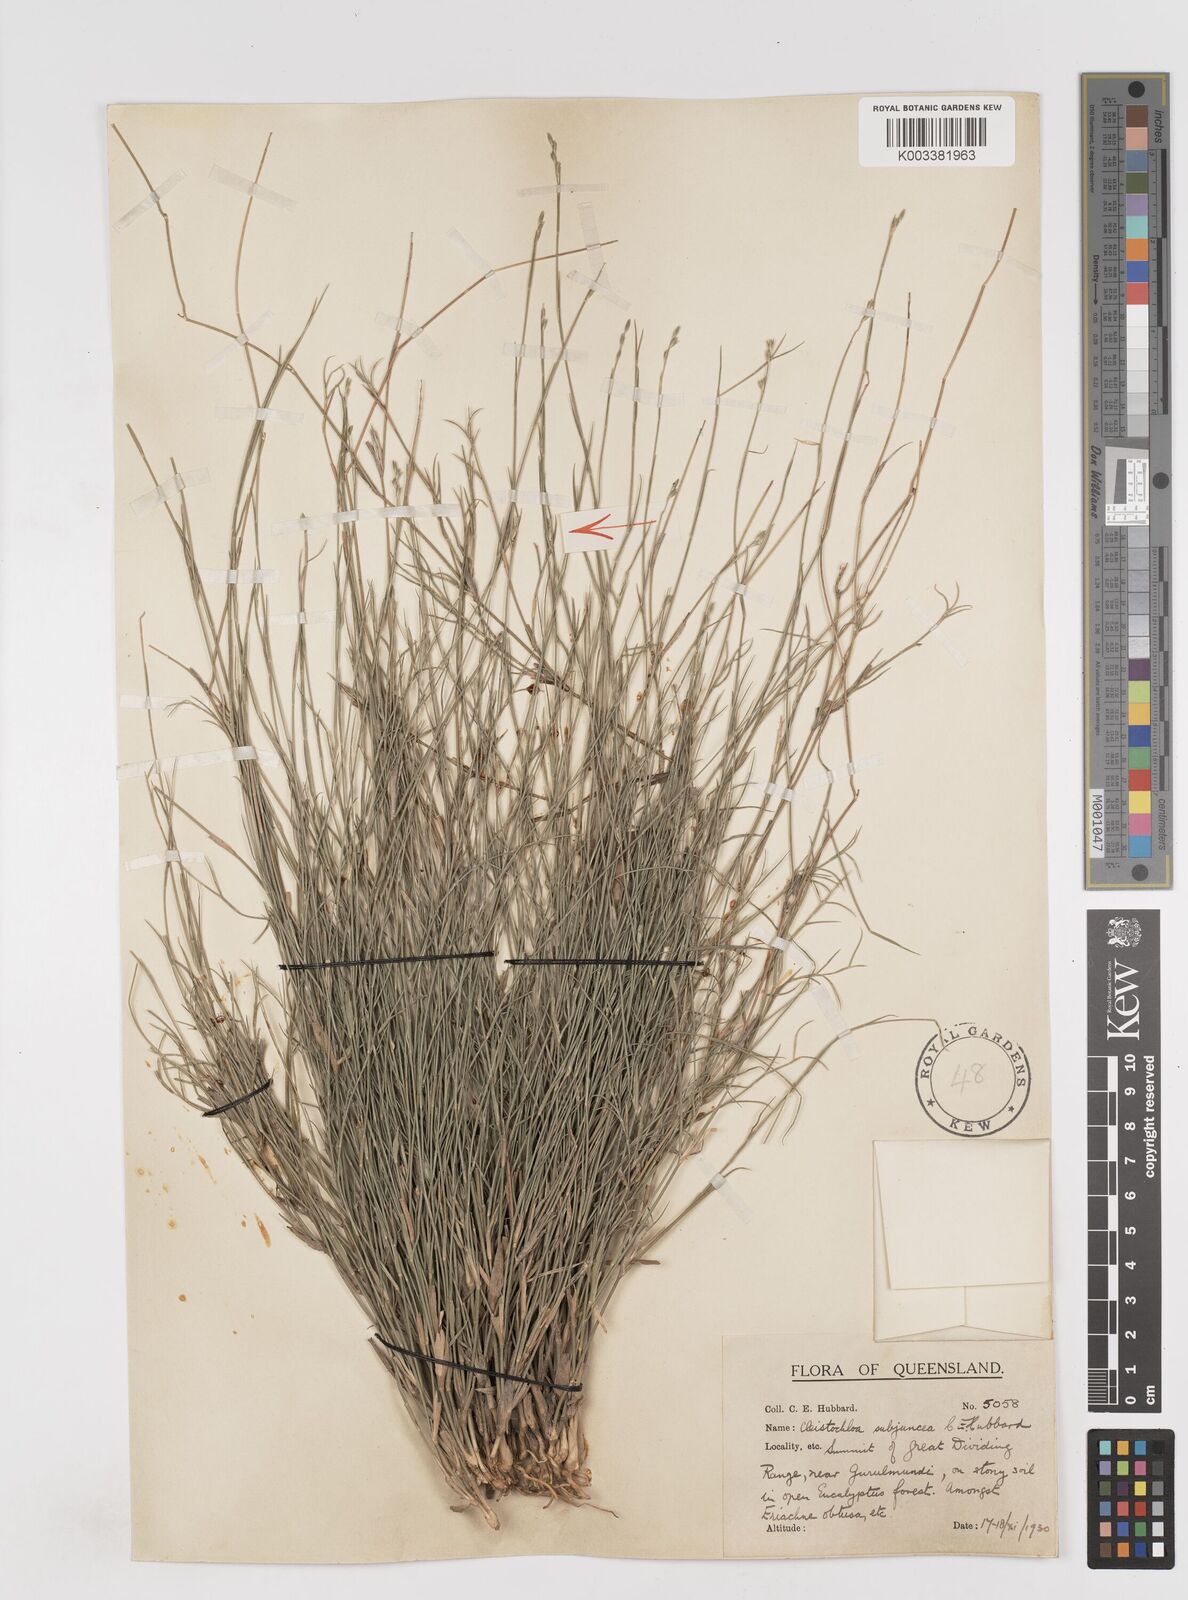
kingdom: Plantae
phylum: Tracheophyta
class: Liliopsida
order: Poales
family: Poaceae
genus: Cleistochloa
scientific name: Cleistochloa subjuncea
